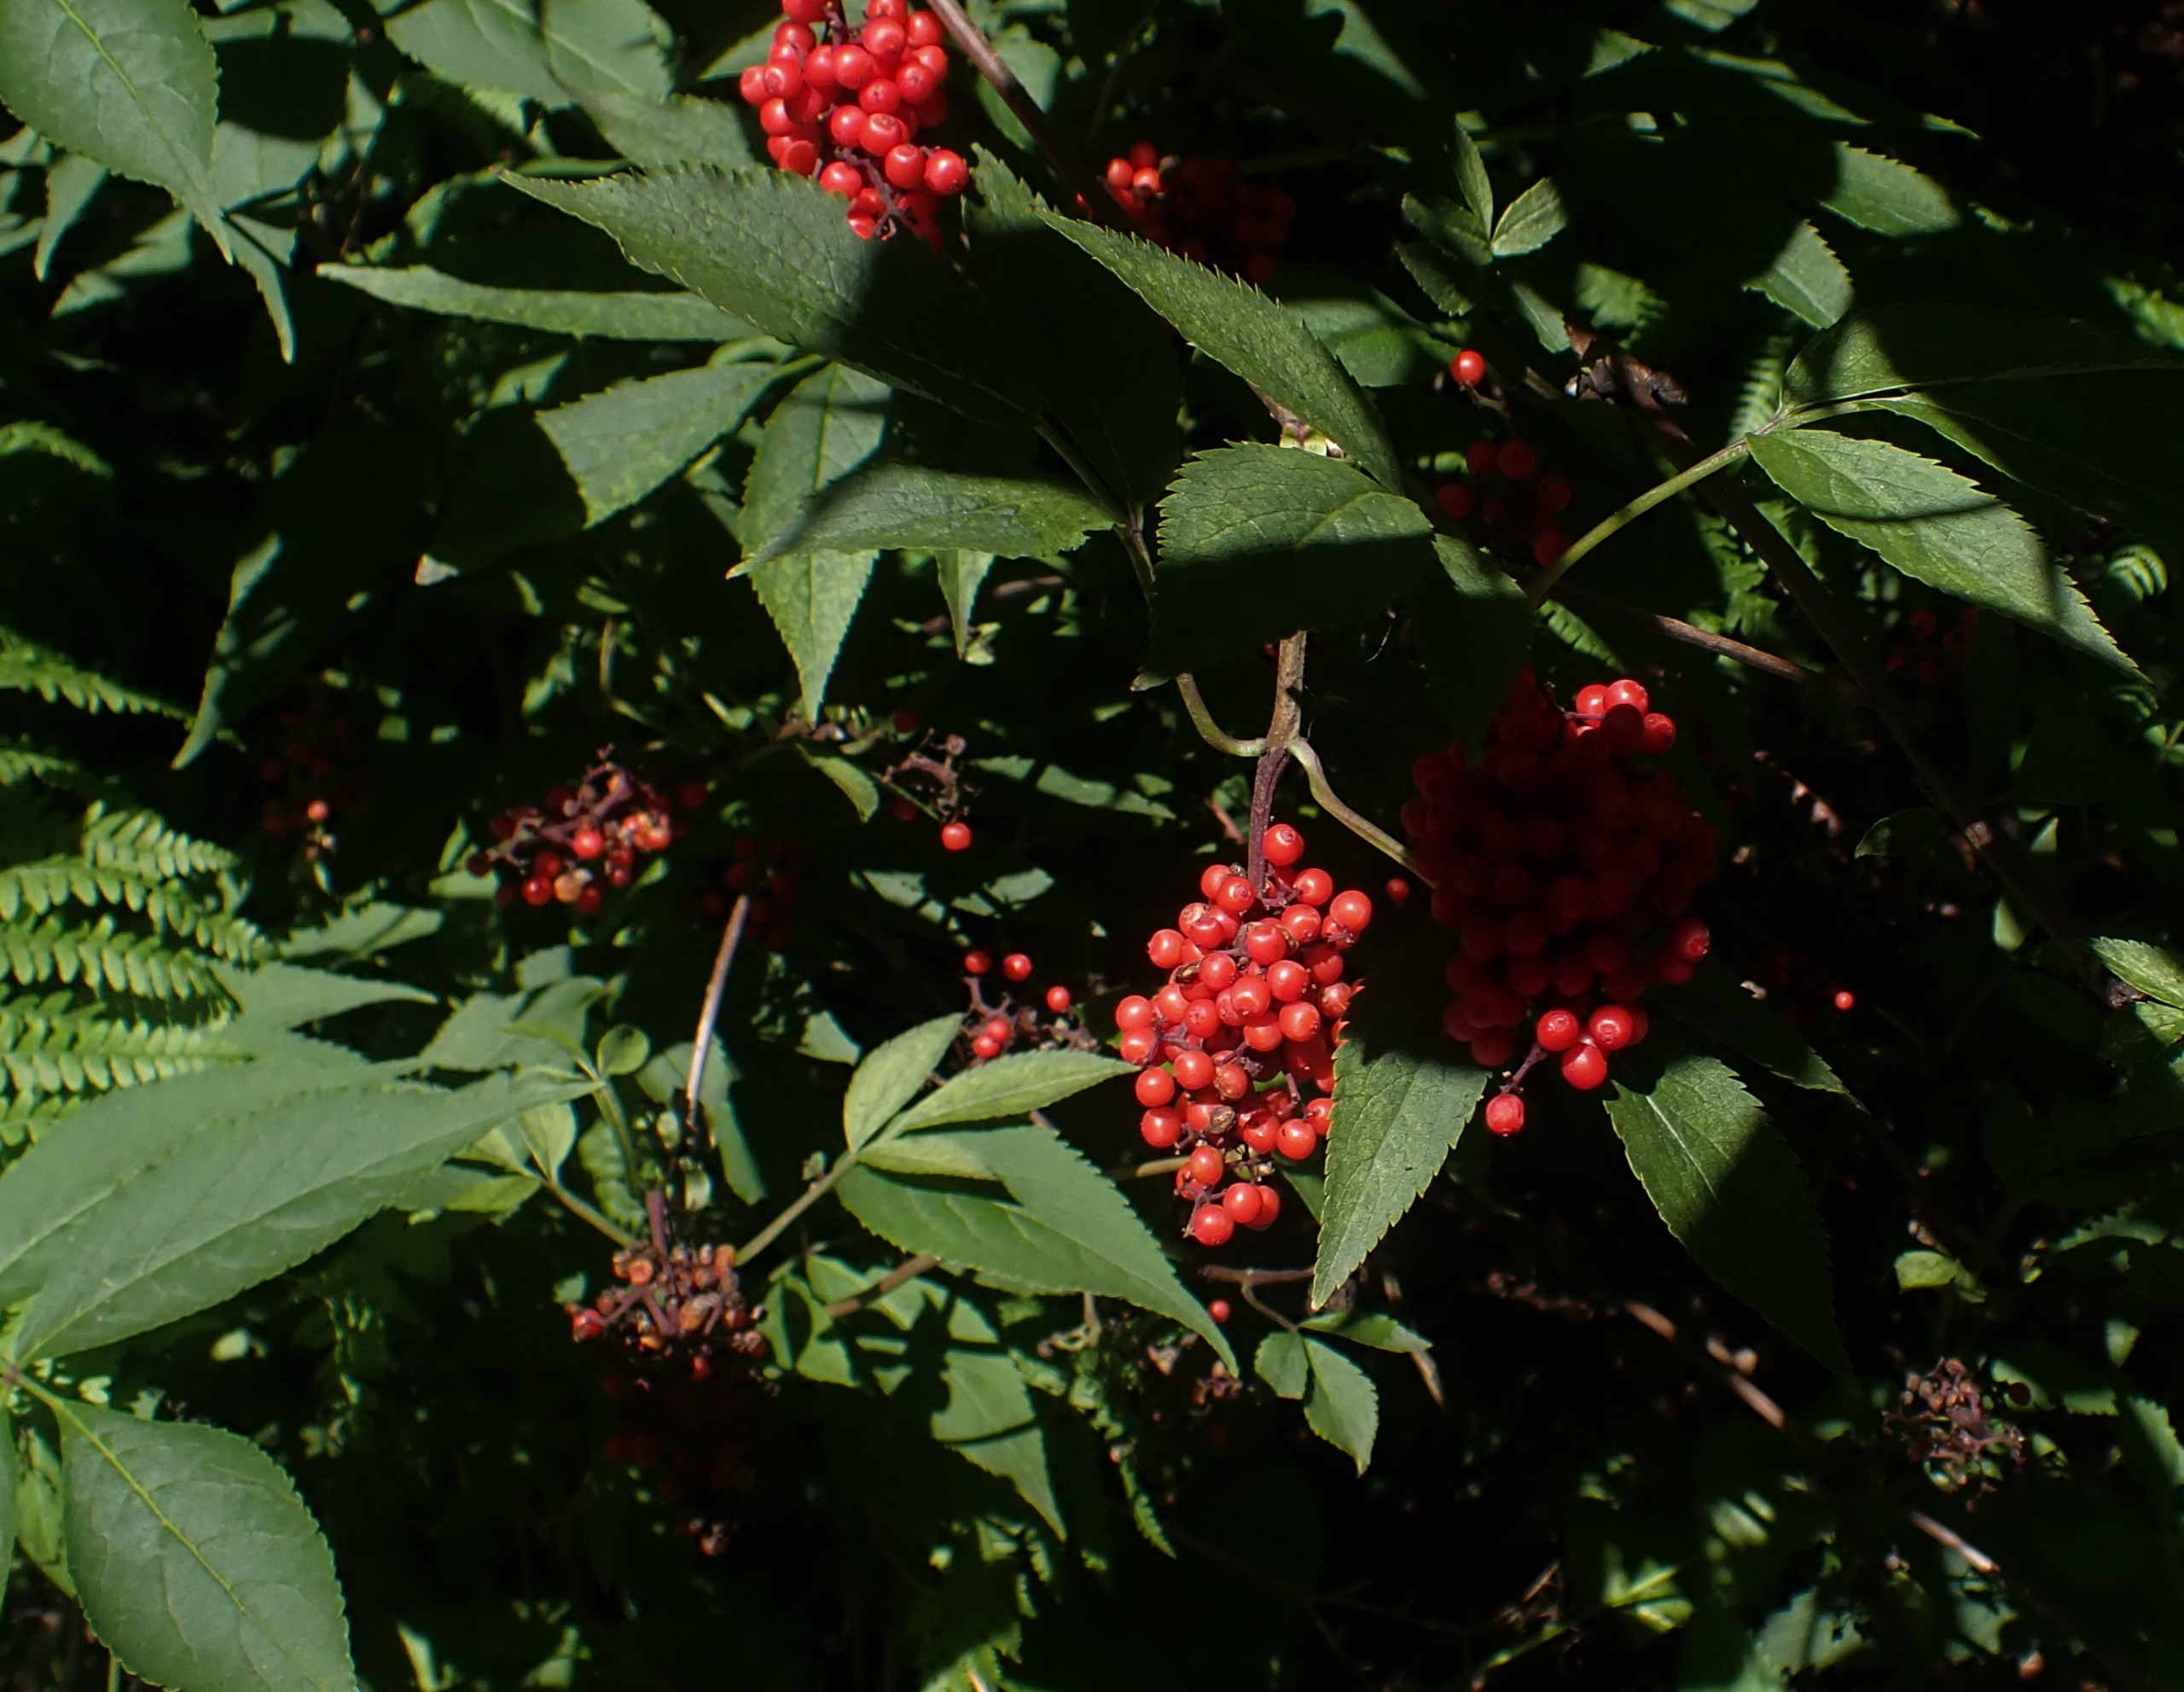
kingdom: Plantae
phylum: Tracheophyta
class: Magnoliopsida
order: Dipsacales
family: Viburnaceae
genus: Sambucus
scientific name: Sambucus racemosa
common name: Drue-hyld
